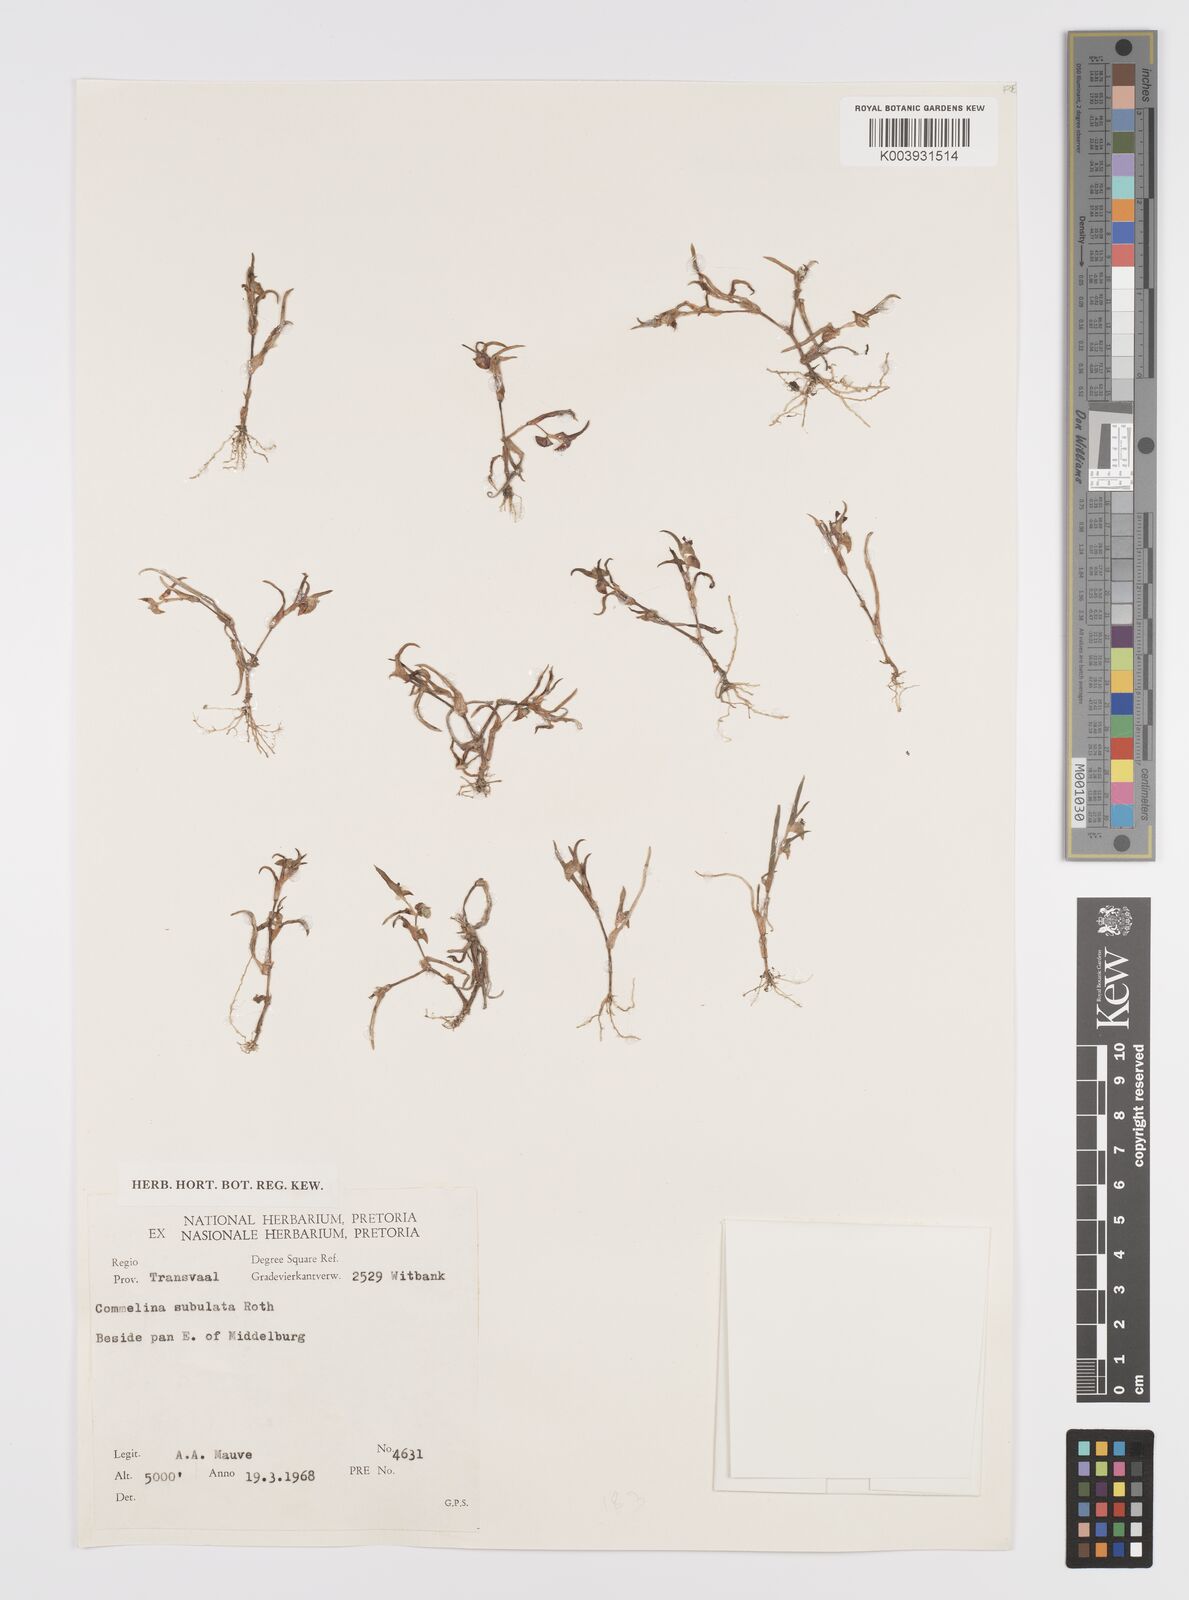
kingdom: Plantae
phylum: Tracheophyta
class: Liliopsida
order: Commelinales
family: Commelinaceae
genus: Commelina
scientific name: Commelina subulata
